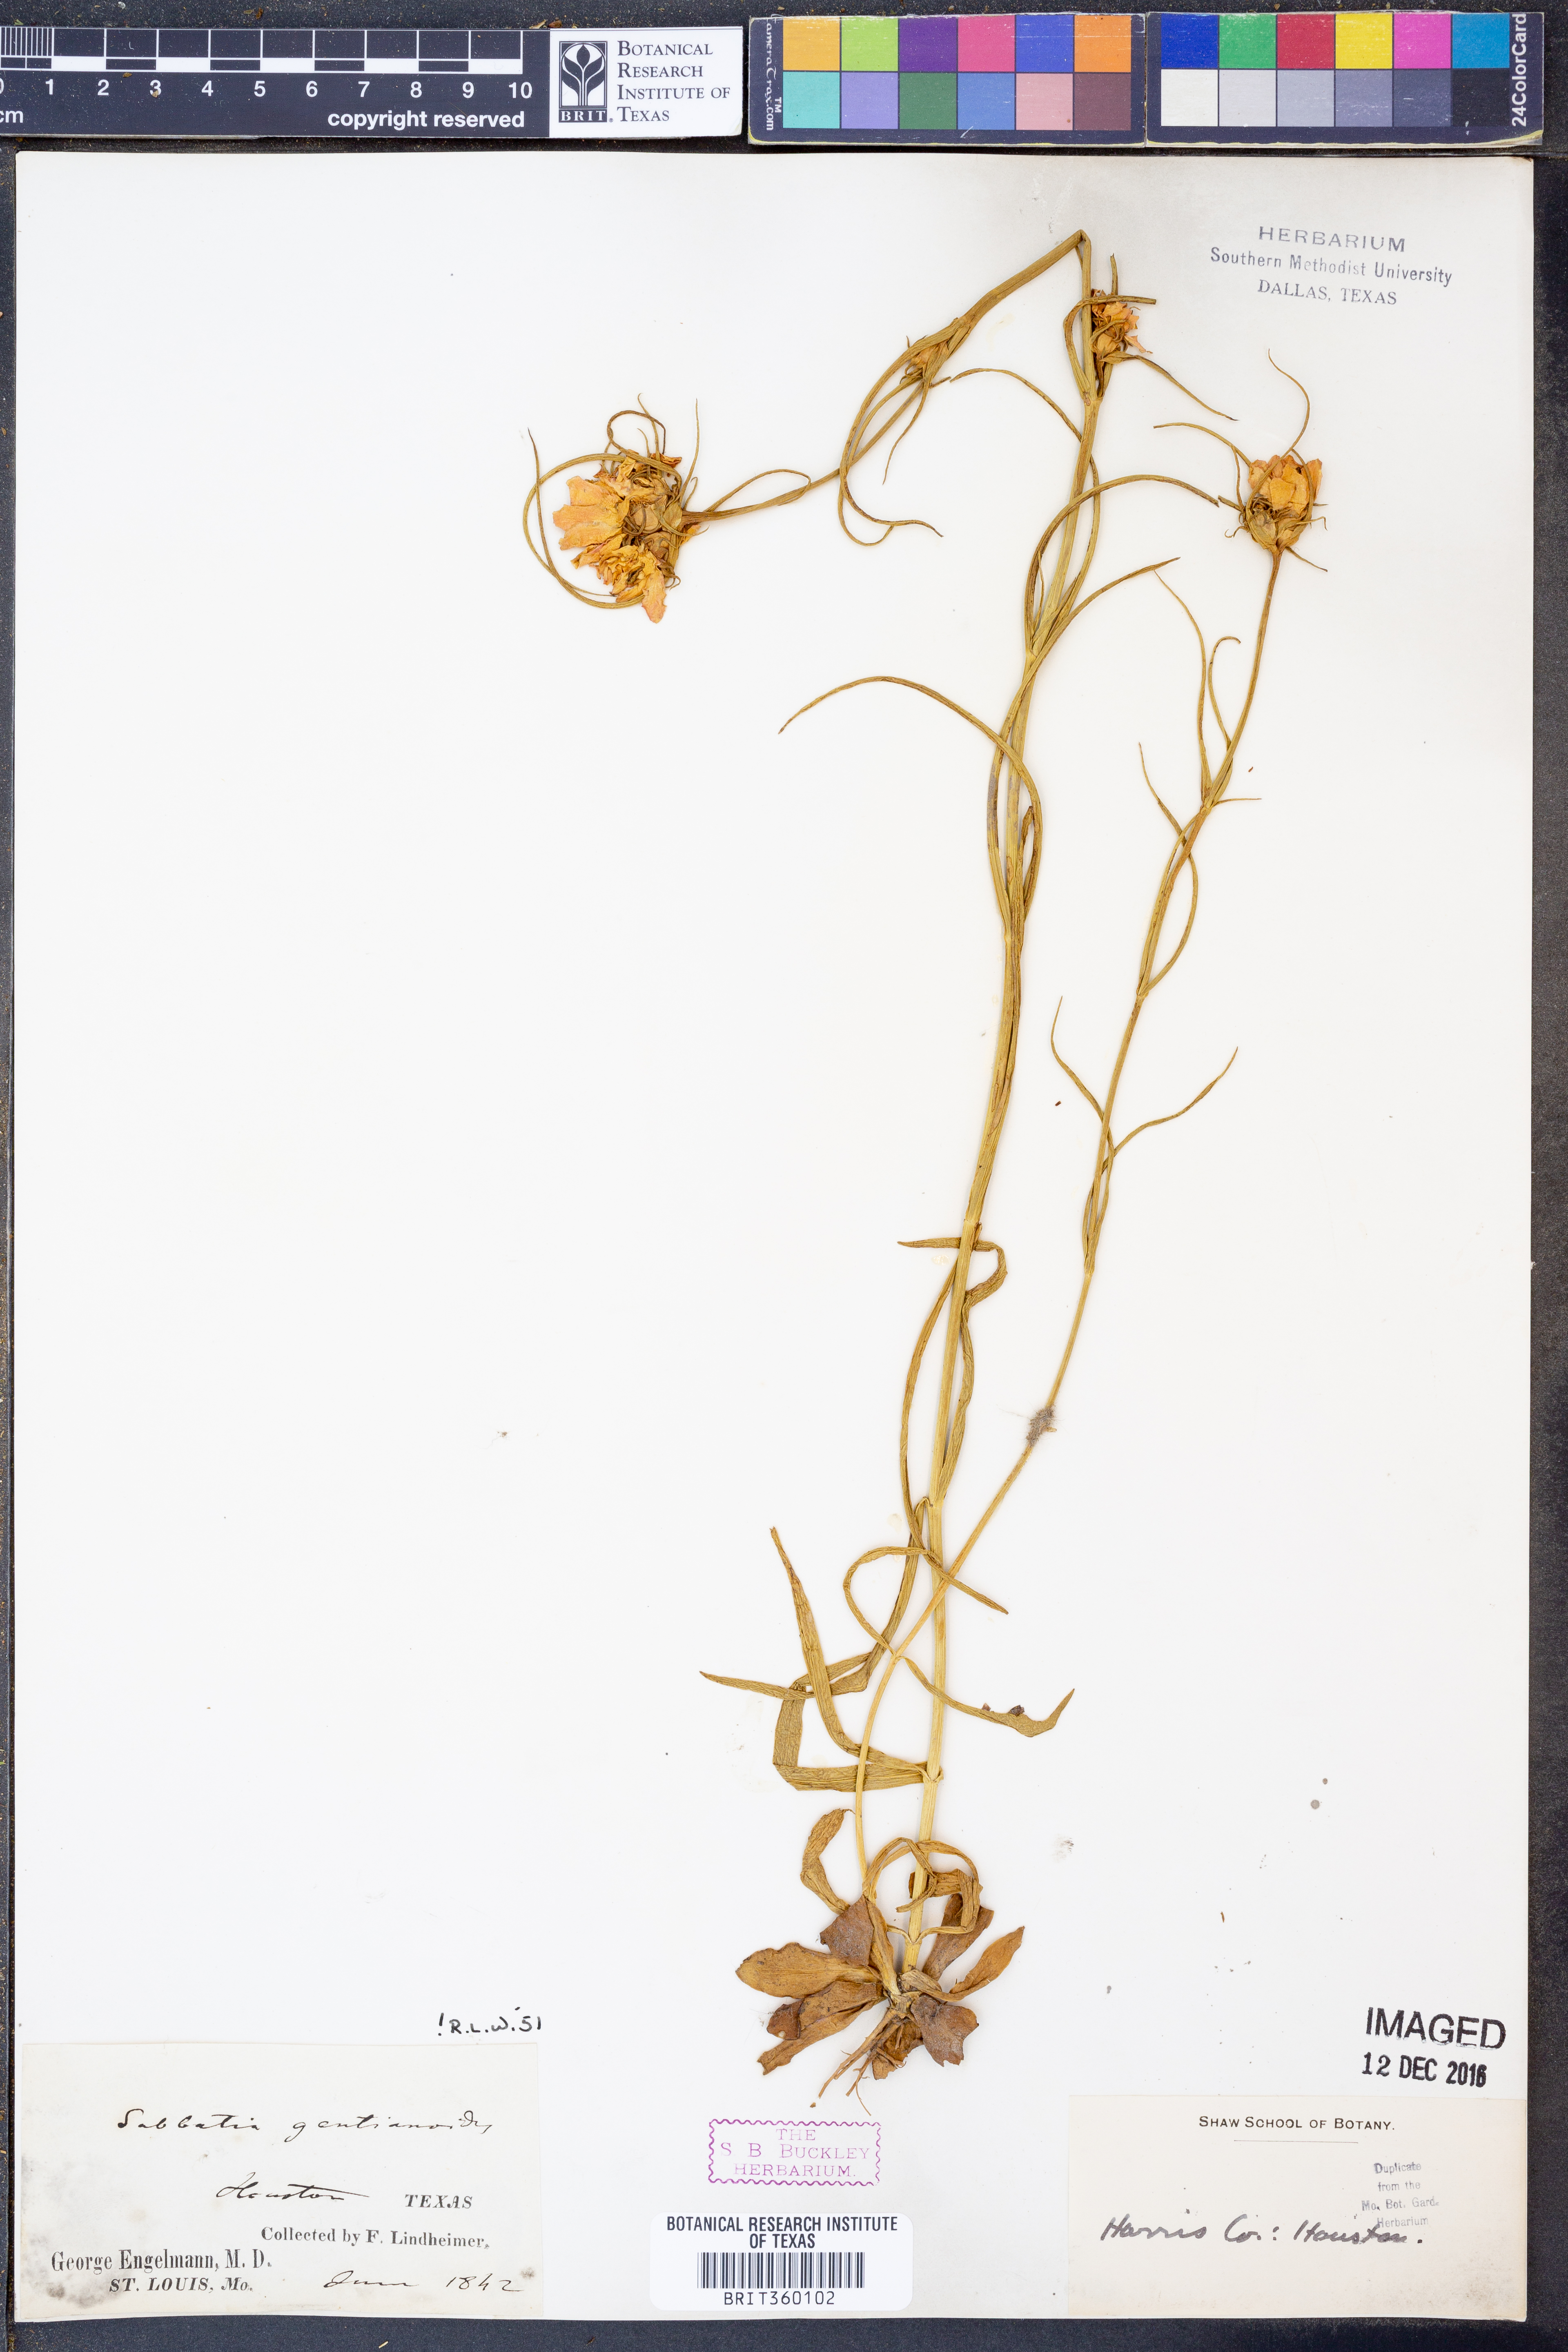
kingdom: Plantae
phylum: Tracheophyta
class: Magnoliopsida
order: Gentianales
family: Gentianaceae
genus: Sabatia
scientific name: Sabatia gentianoides
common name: Pinewoods rose-gentian
